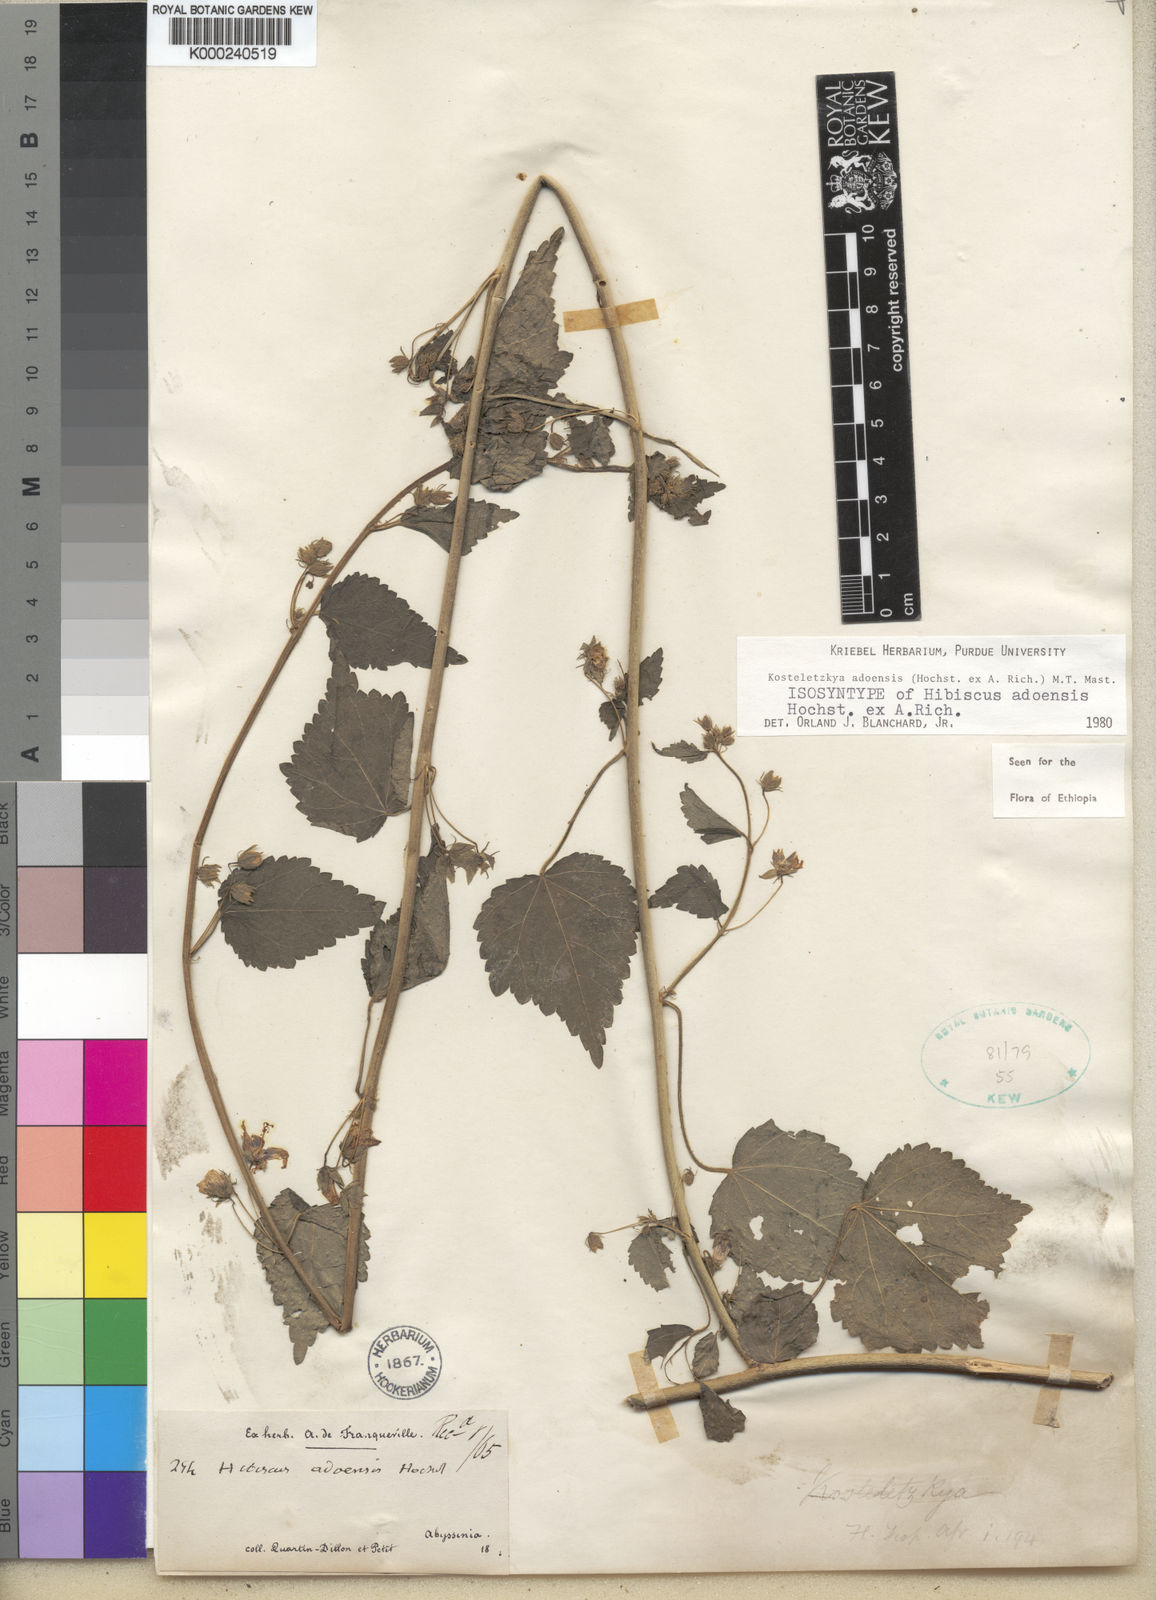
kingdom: Plantae
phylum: Tracheophyta
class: Magnoliopsida
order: Malvales
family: Malvaceae
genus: Kosteletzkya
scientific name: Kosteletzkya adoensis
